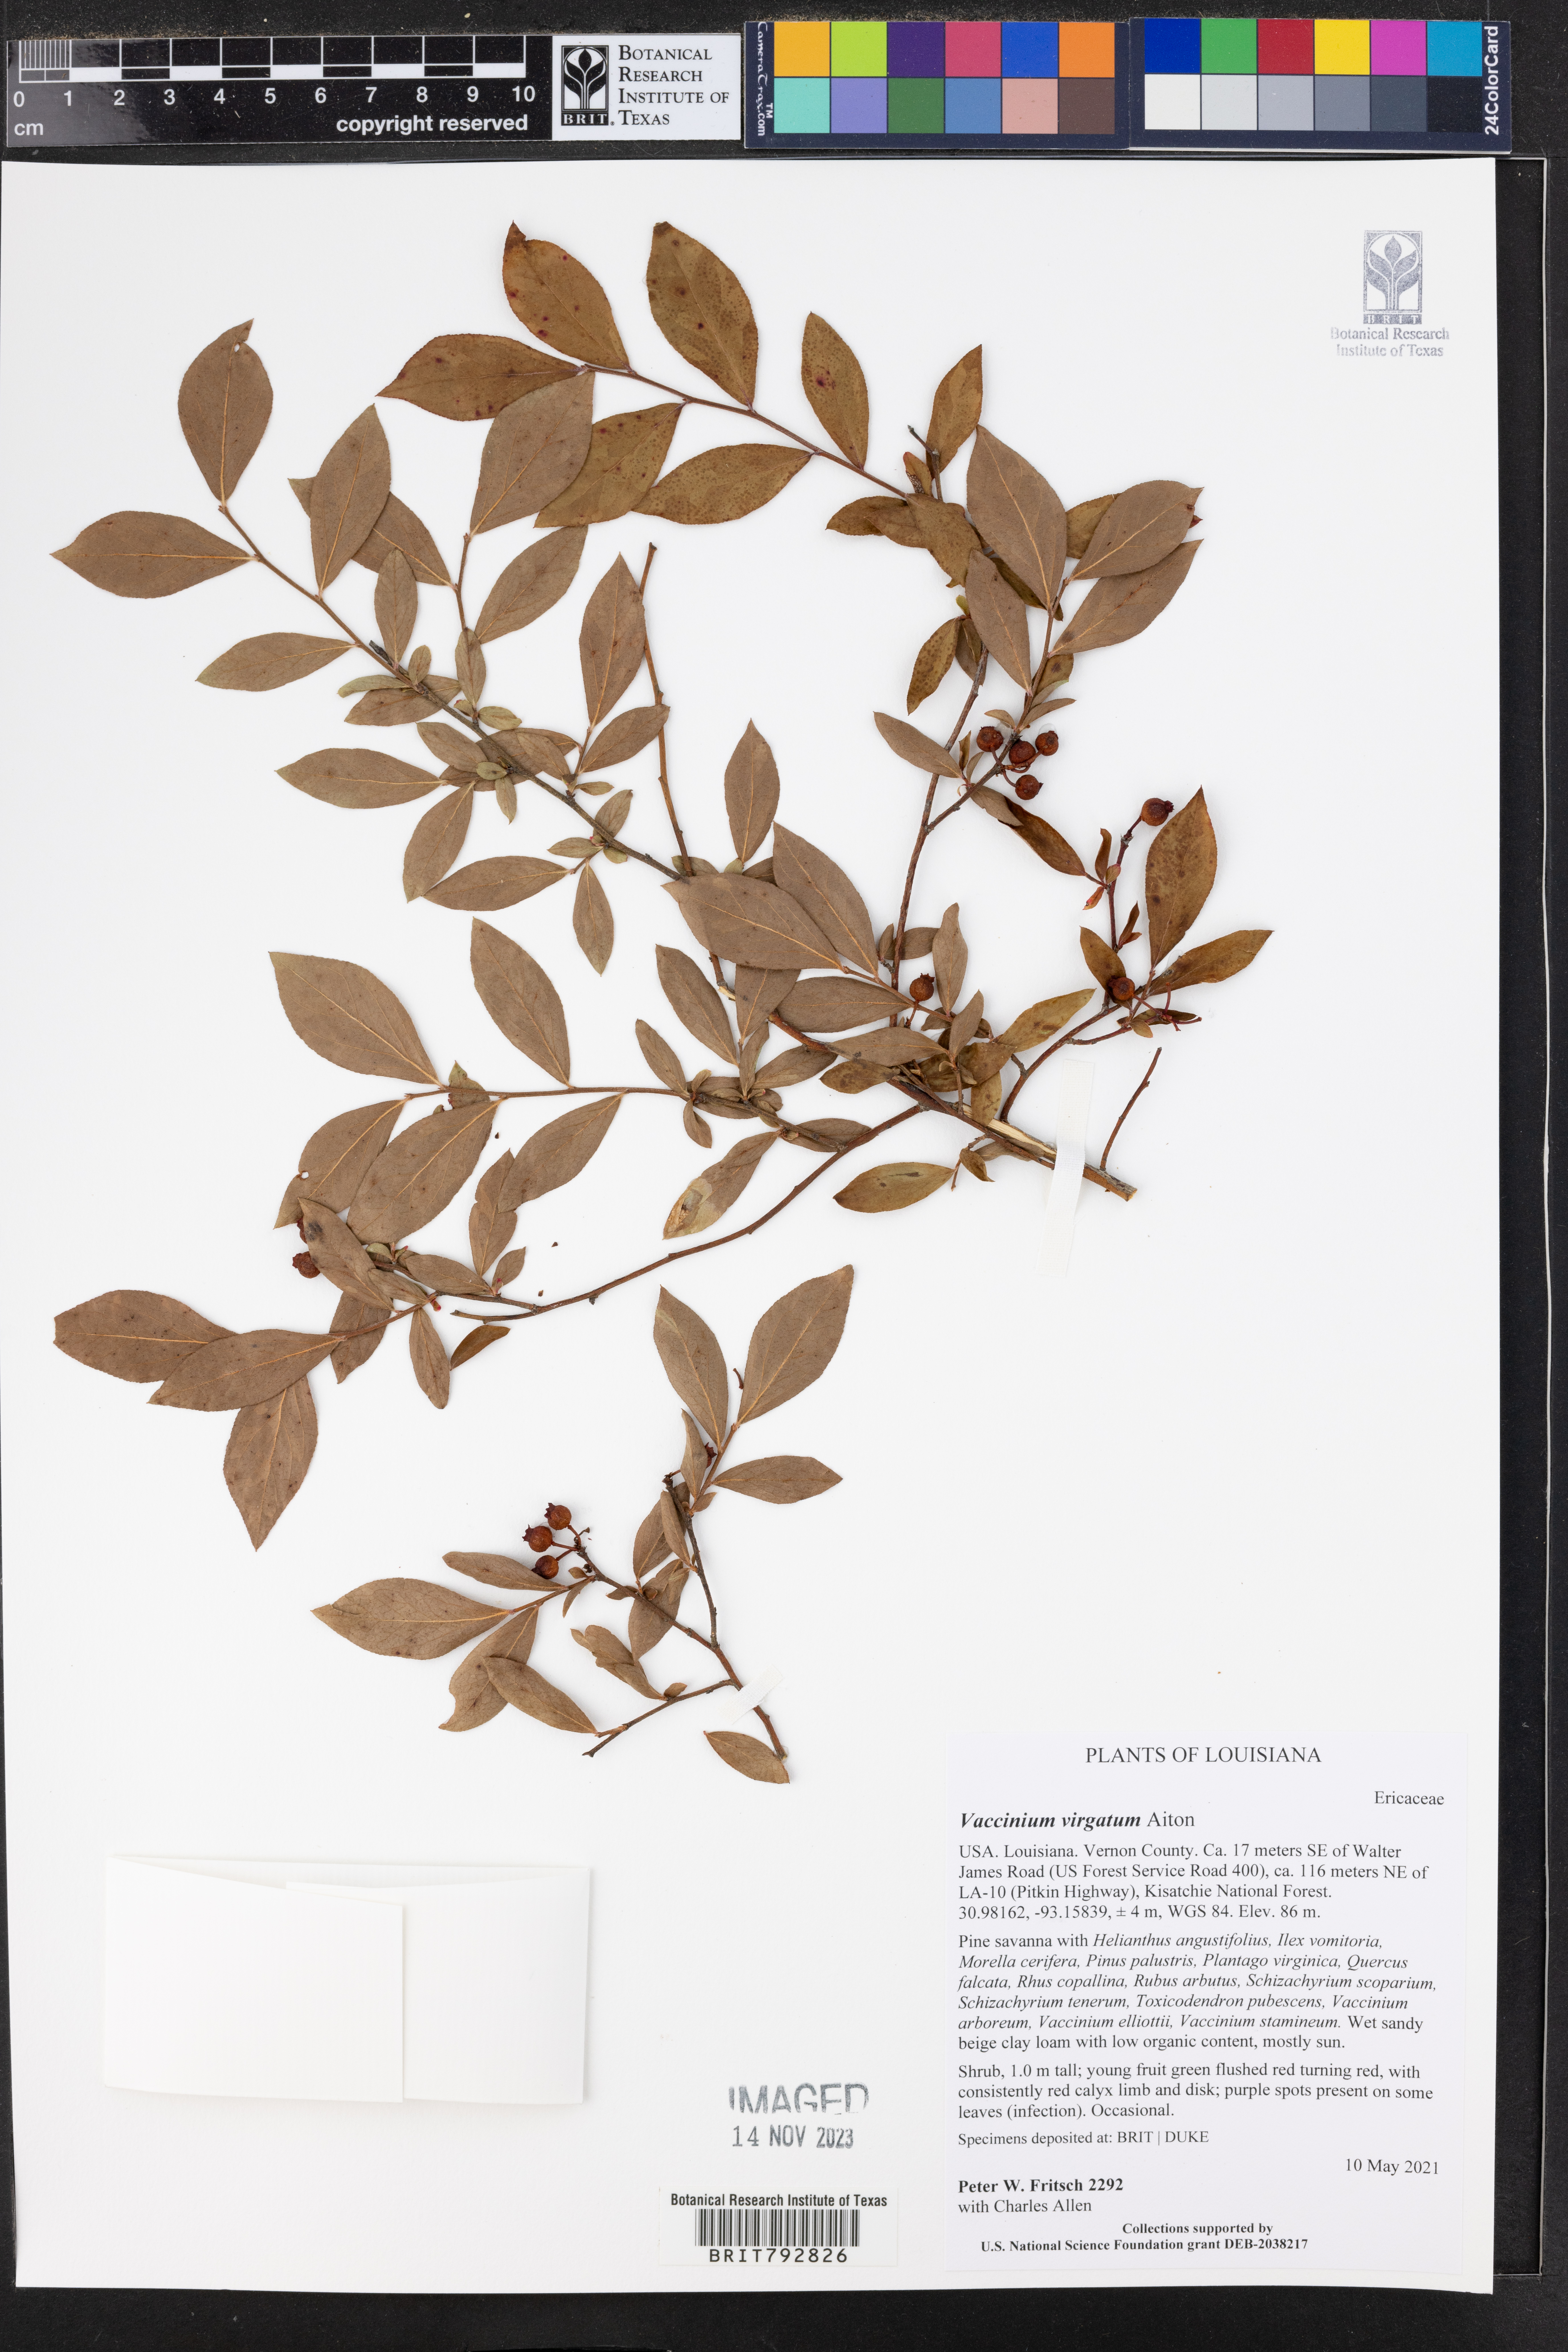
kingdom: Plantae
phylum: Tracheophyta
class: Magnoliopsida
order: Ericales
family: Ericaceae
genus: Vaccinium
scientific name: Vaccinium corymbosum
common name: Blueberry
